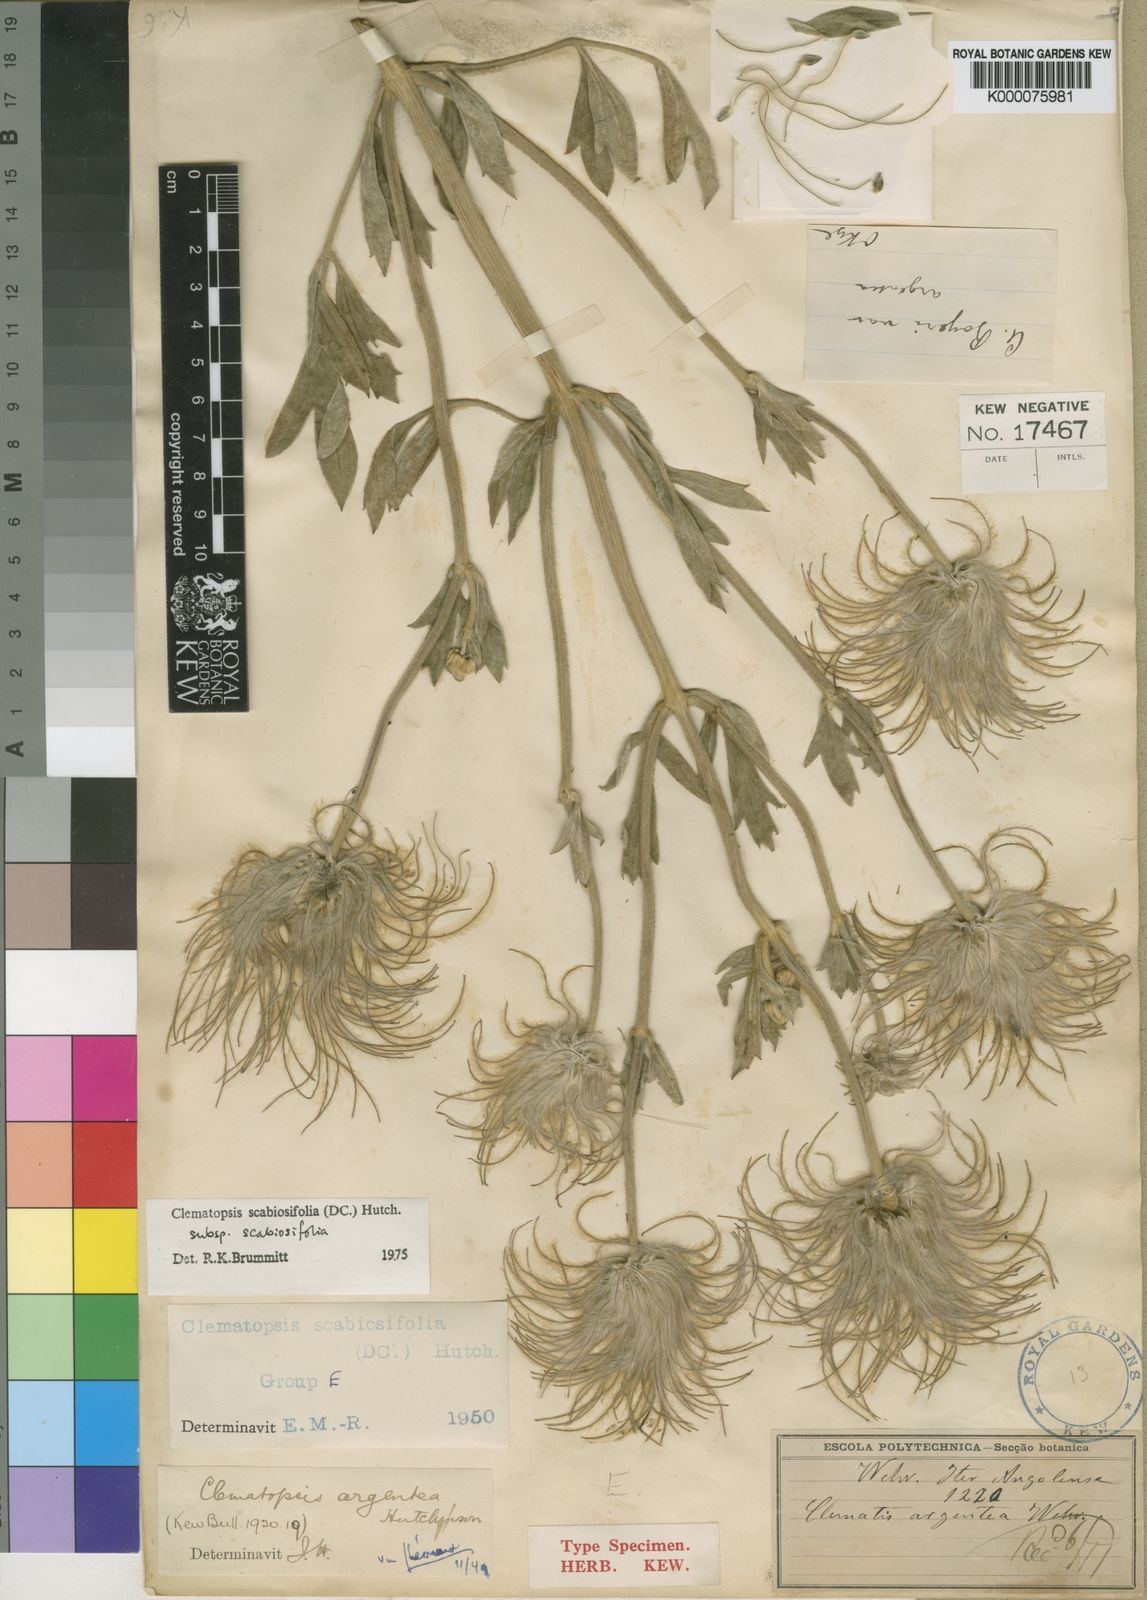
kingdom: Plantae
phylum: Tracheophyta
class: Magnoliopsida
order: Ranunculales
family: Ranunculaceae
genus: Clematis
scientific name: Clematis villosa
